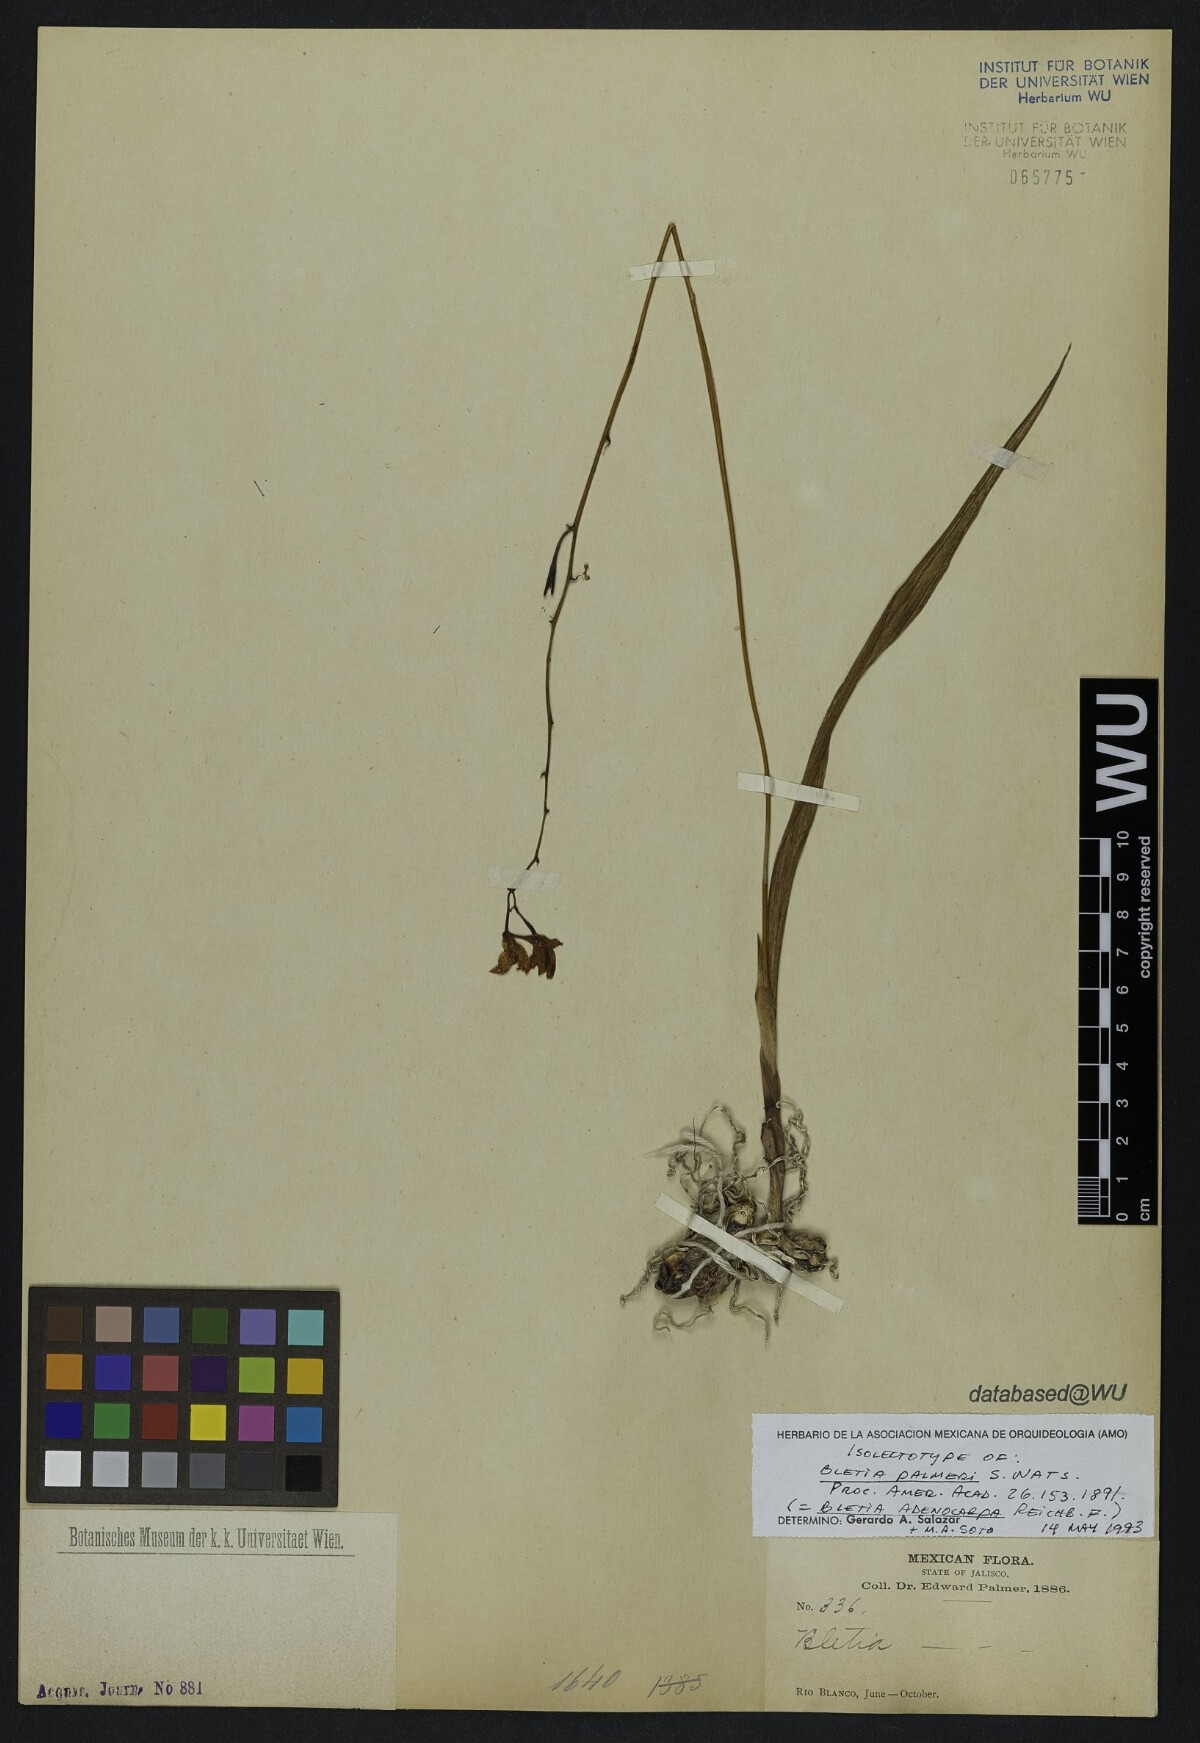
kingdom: Plantae
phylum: Tracheophyta
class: Liliopsida
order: Asparagales
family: Orchidaceae
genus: Bletia
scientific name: Bletia adenocarpa
